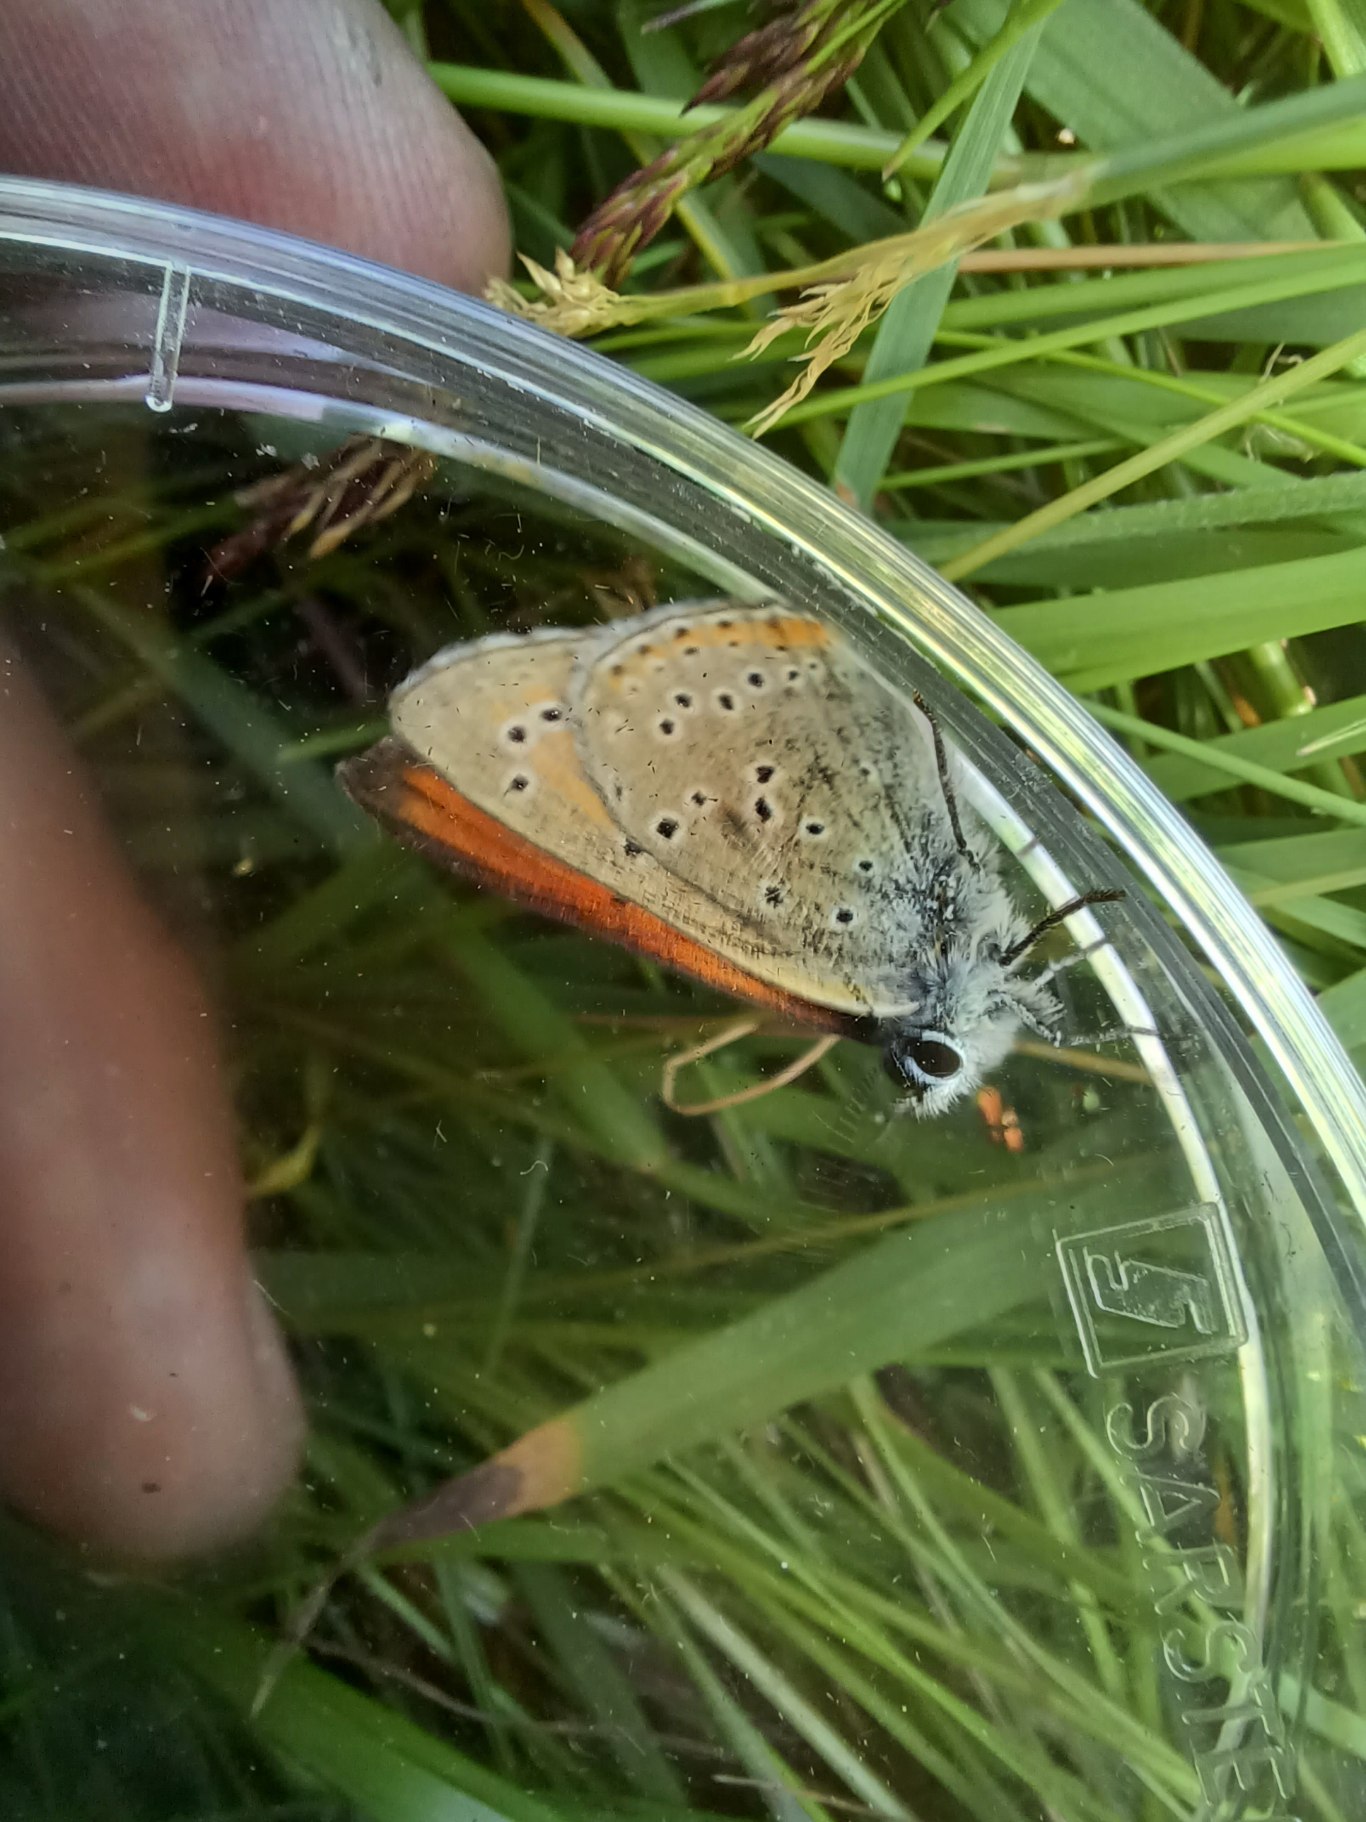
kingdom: Animalia
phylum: Arthropoda
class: Insecta
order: Lepidoptera
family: Lycaenidae
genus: Palaeochrysophanus
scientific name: Palaeochrysophanus hippothoe
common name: Violetrandet ildfugl
